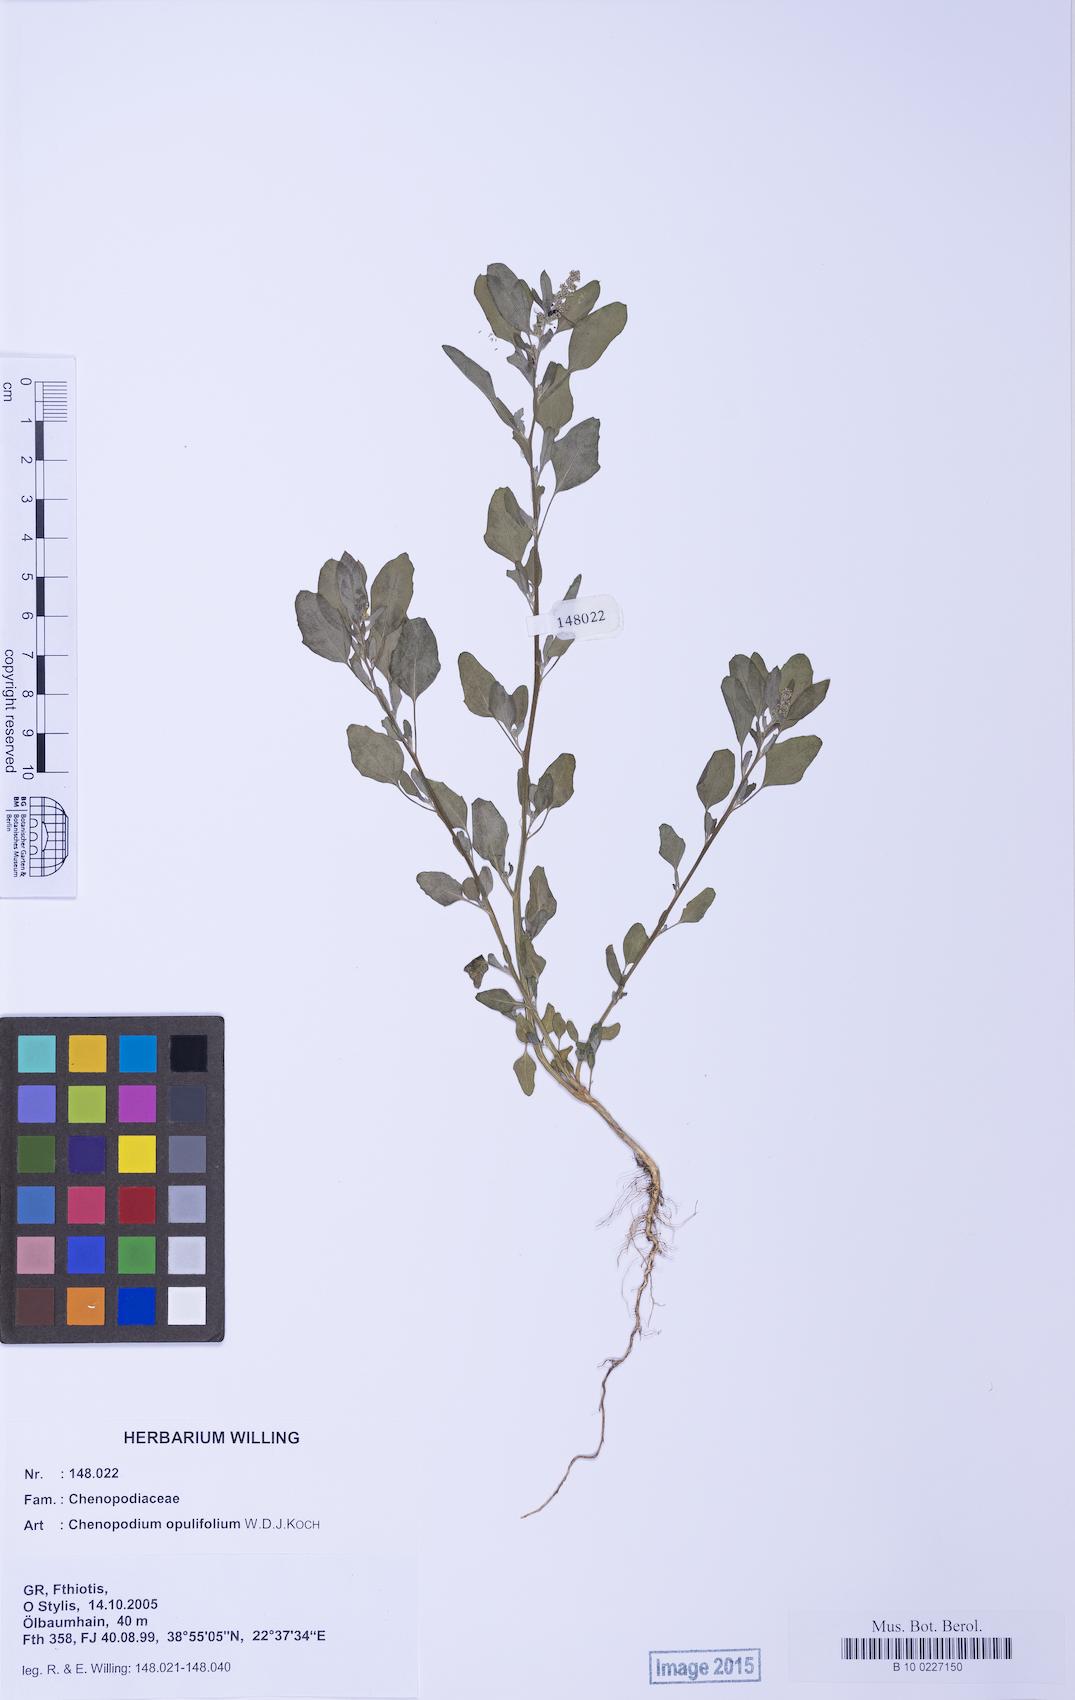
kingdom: Plantae
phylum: Tracheophyta
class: Magnoliopsida
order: Caryophyllales
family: Amaranthaceae
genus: Chenopodium
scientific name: Chenopodium opulifolium
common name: Grey goosefoot
